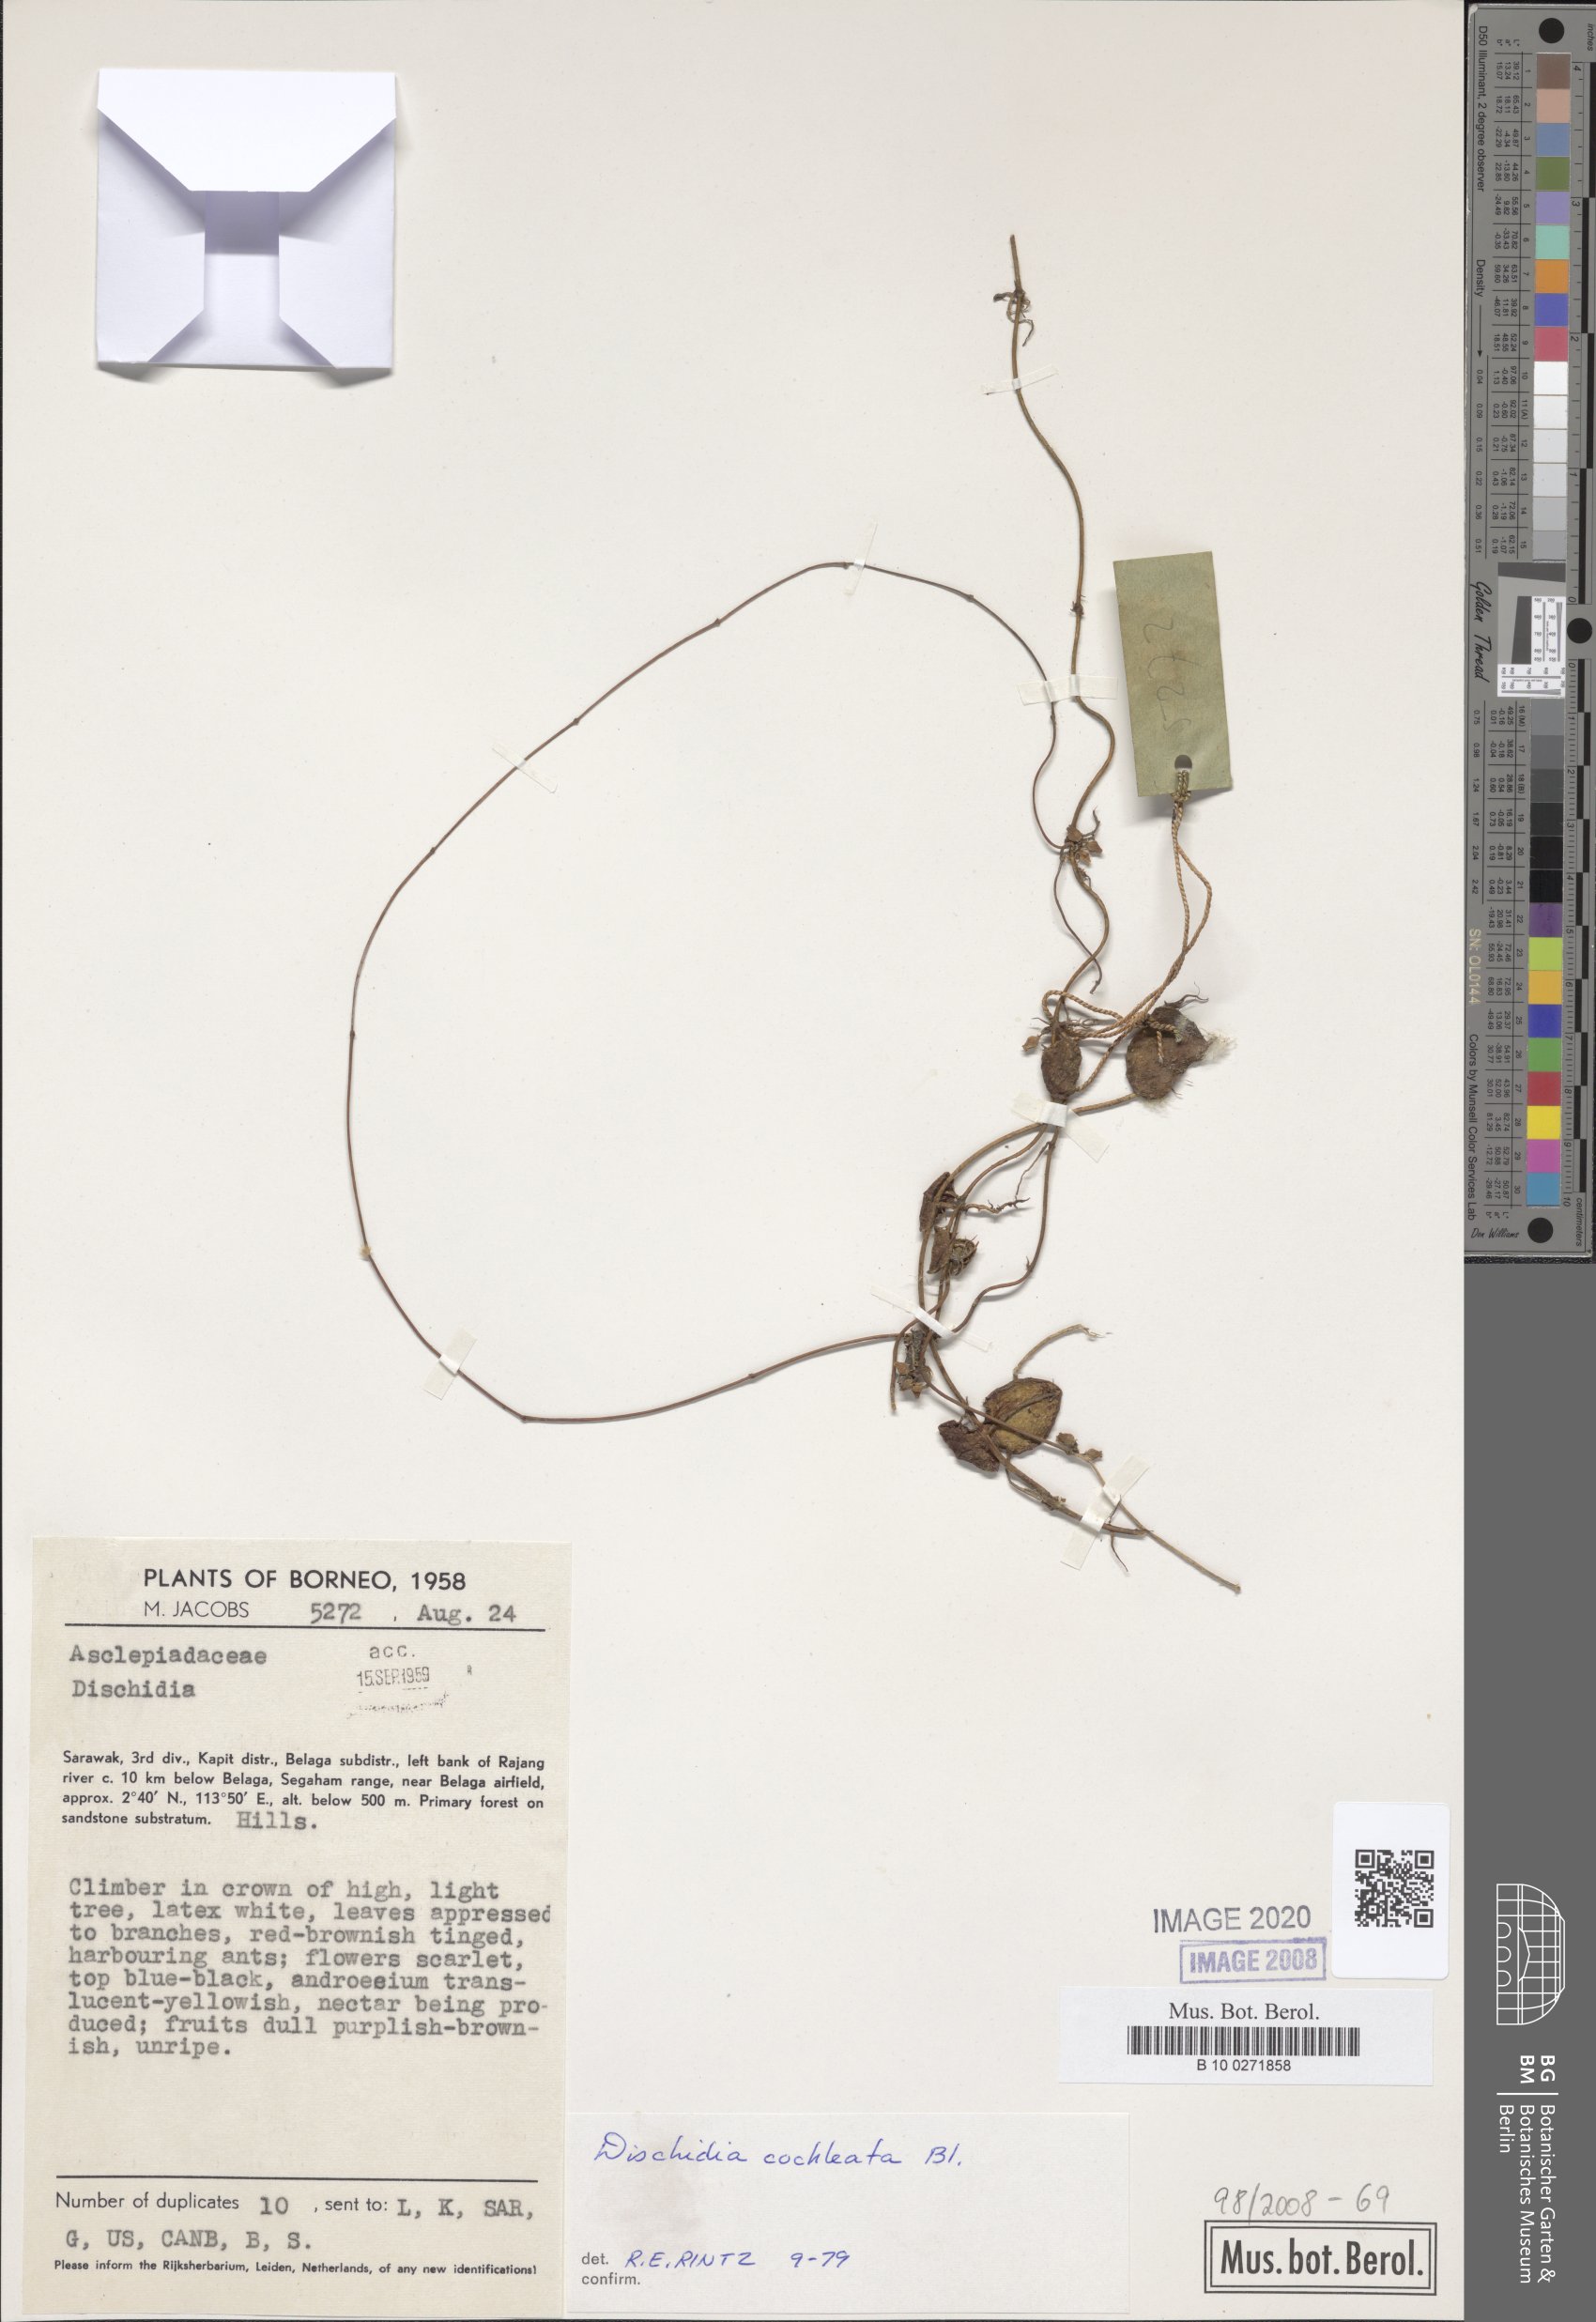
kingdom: Plantae
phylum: Tracheophyta
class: Magnoliopsida
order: Gentianales
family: Apocynaceae
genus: Dischidia
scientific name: Dischidia cochleata
